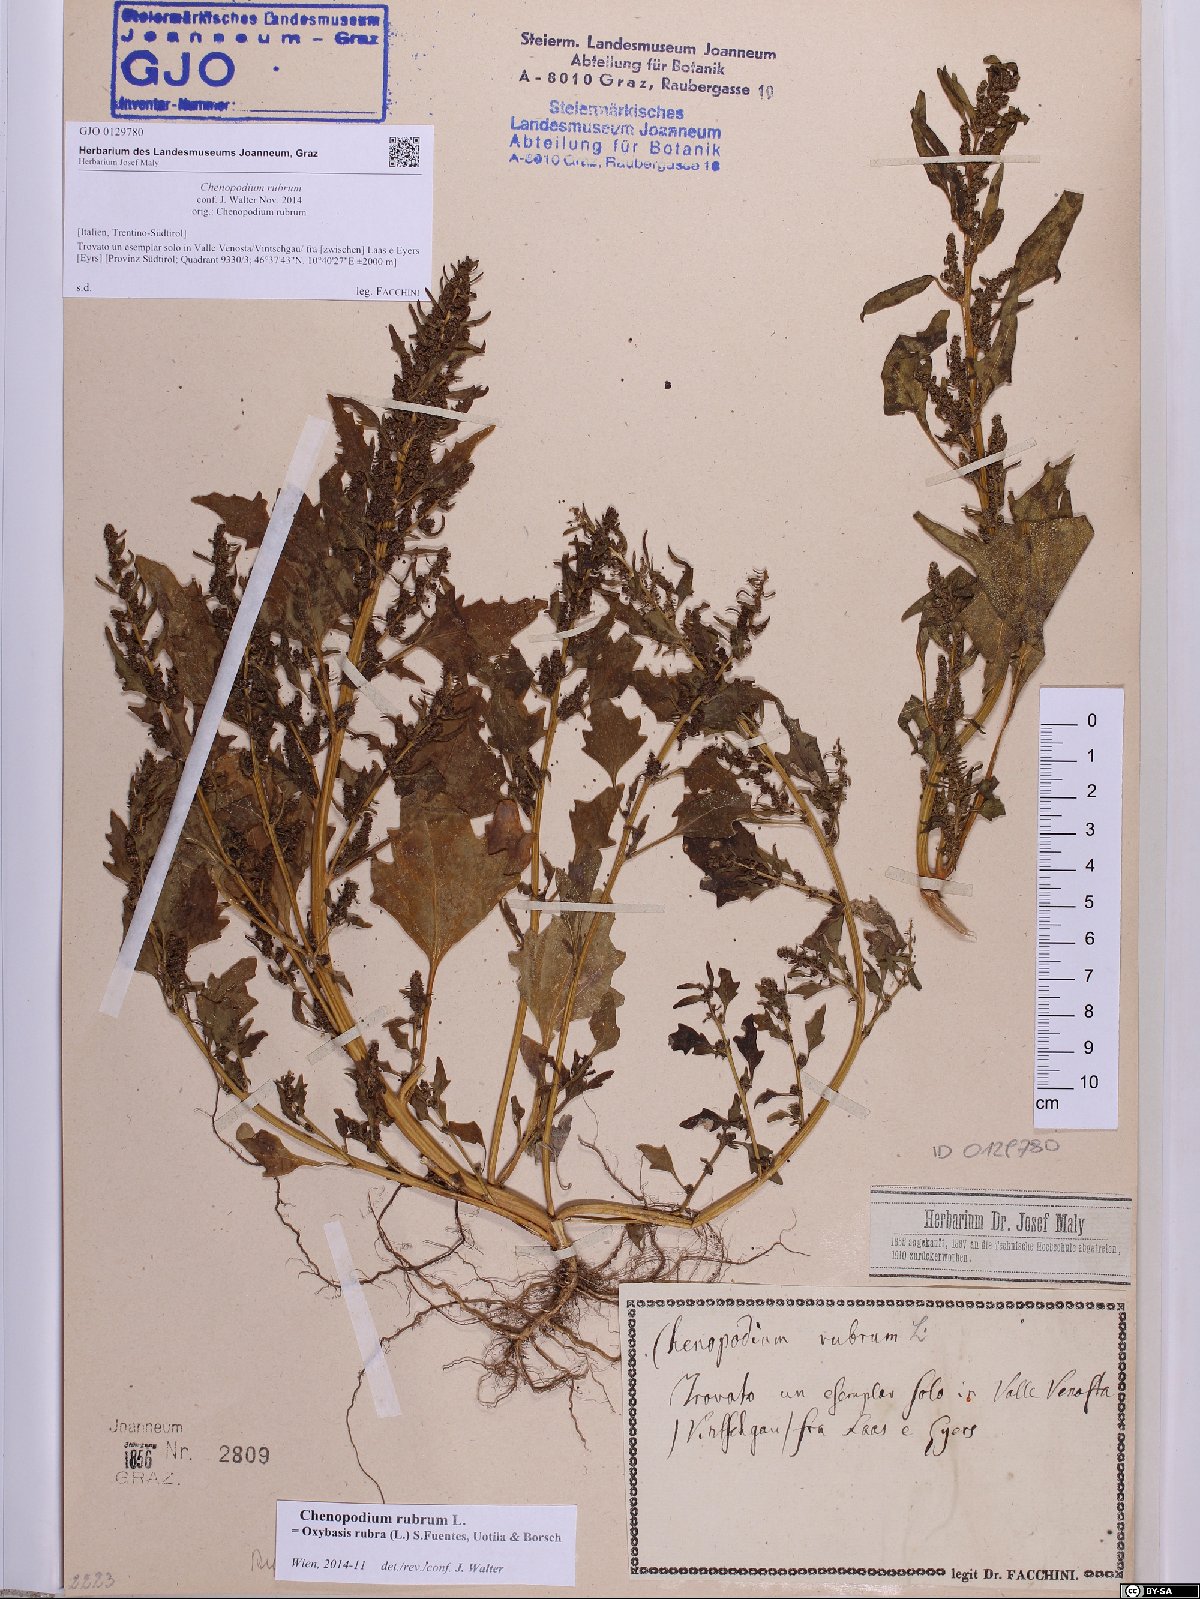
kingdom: Plantae
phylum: Tracheophyta
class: Magnoliopsida
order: Caryophyllales
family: Amaranthaceae
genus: Oxybasis
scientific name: Oxybasis rubra
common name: Red goosefoot
